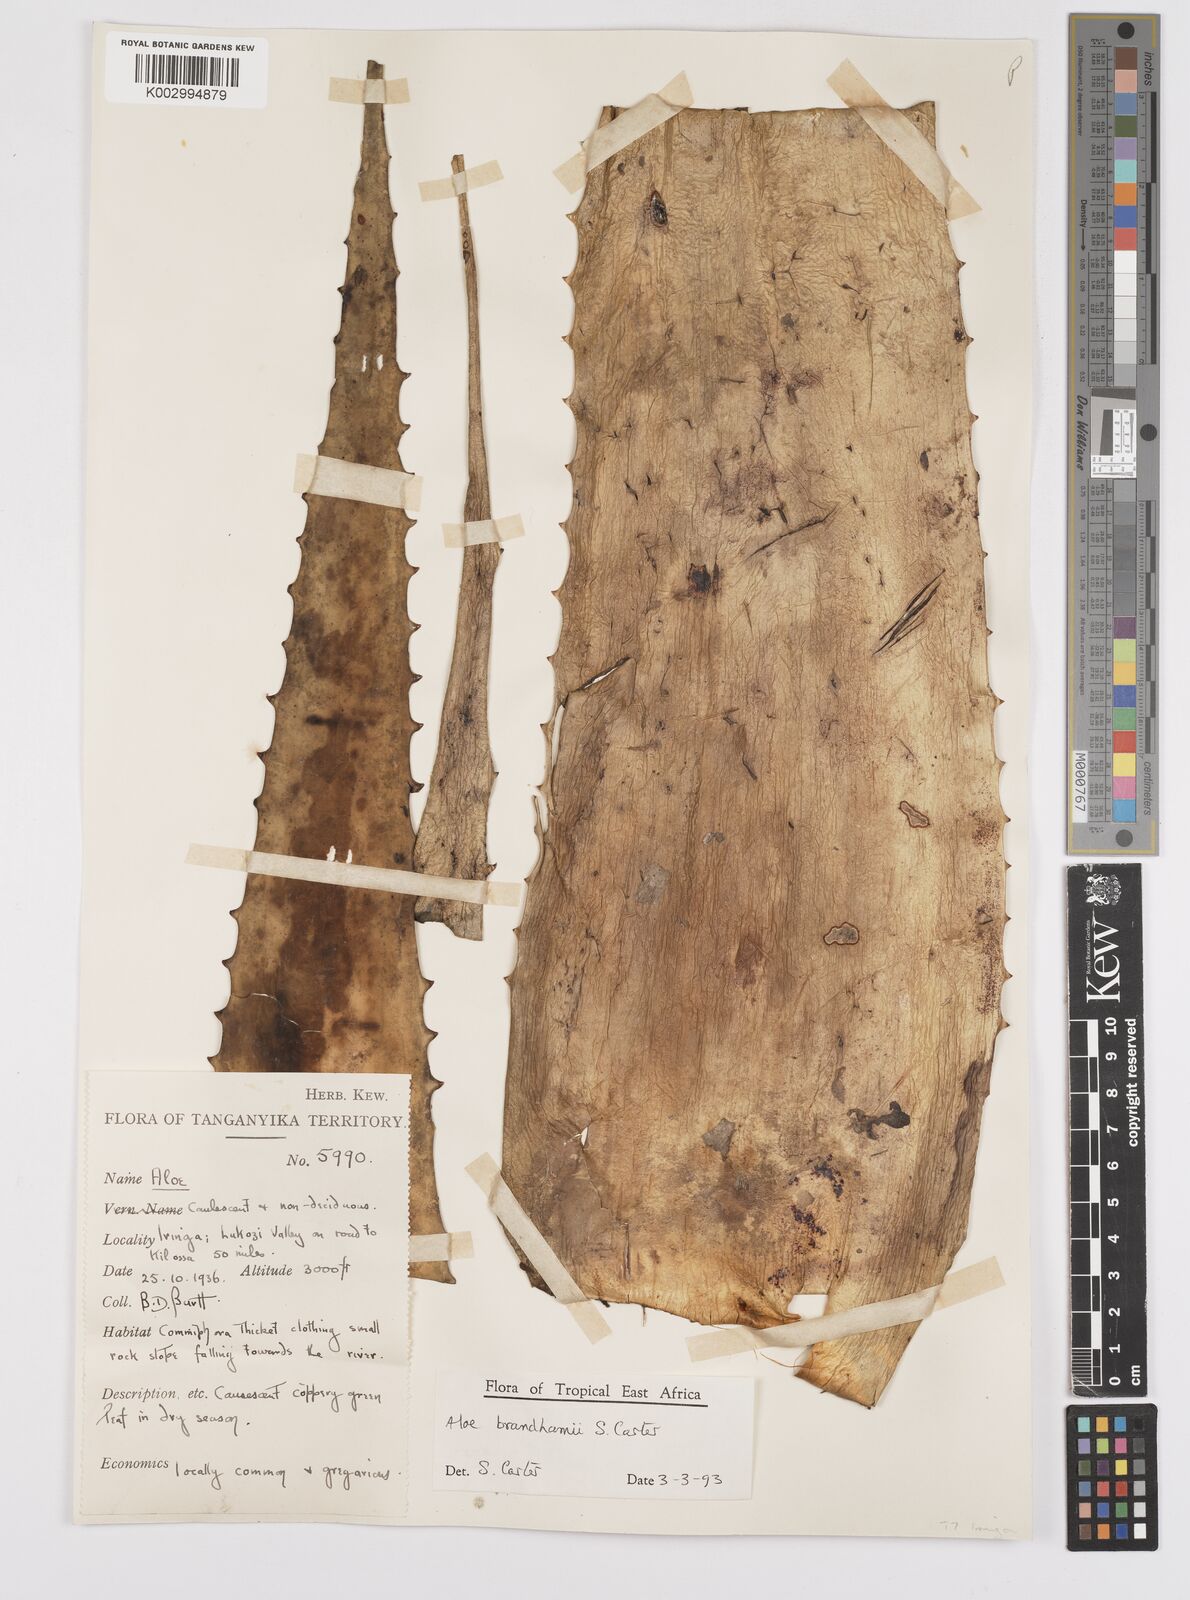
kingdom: Plantae
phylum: Tracheophyta
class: Liliopsida
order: Asparagales
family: Asphodelaceae
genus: Aloe
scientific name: Aloe brandhamii
